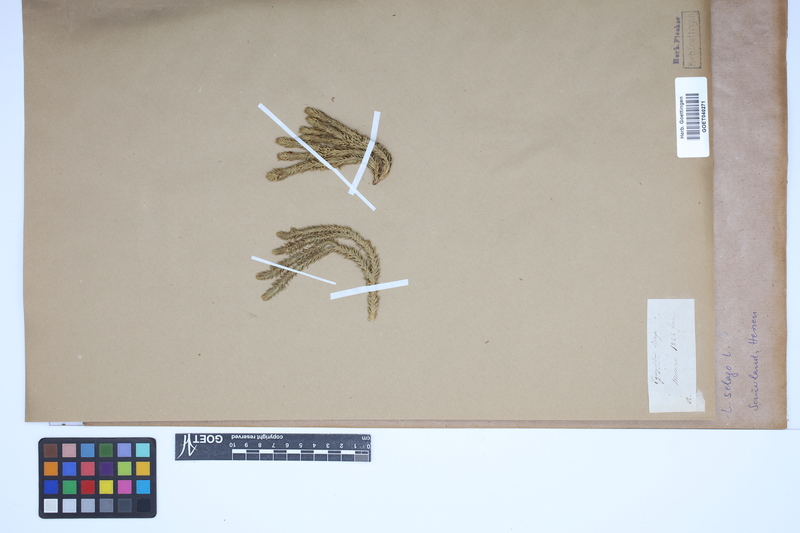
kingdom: Plantae
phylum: Tracheophyta
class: Lycopodiopsida
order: Lycopodiales
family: Lycopodiaceae
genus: Huperzia
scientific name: Huperzia selago
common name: Northern firmoss
